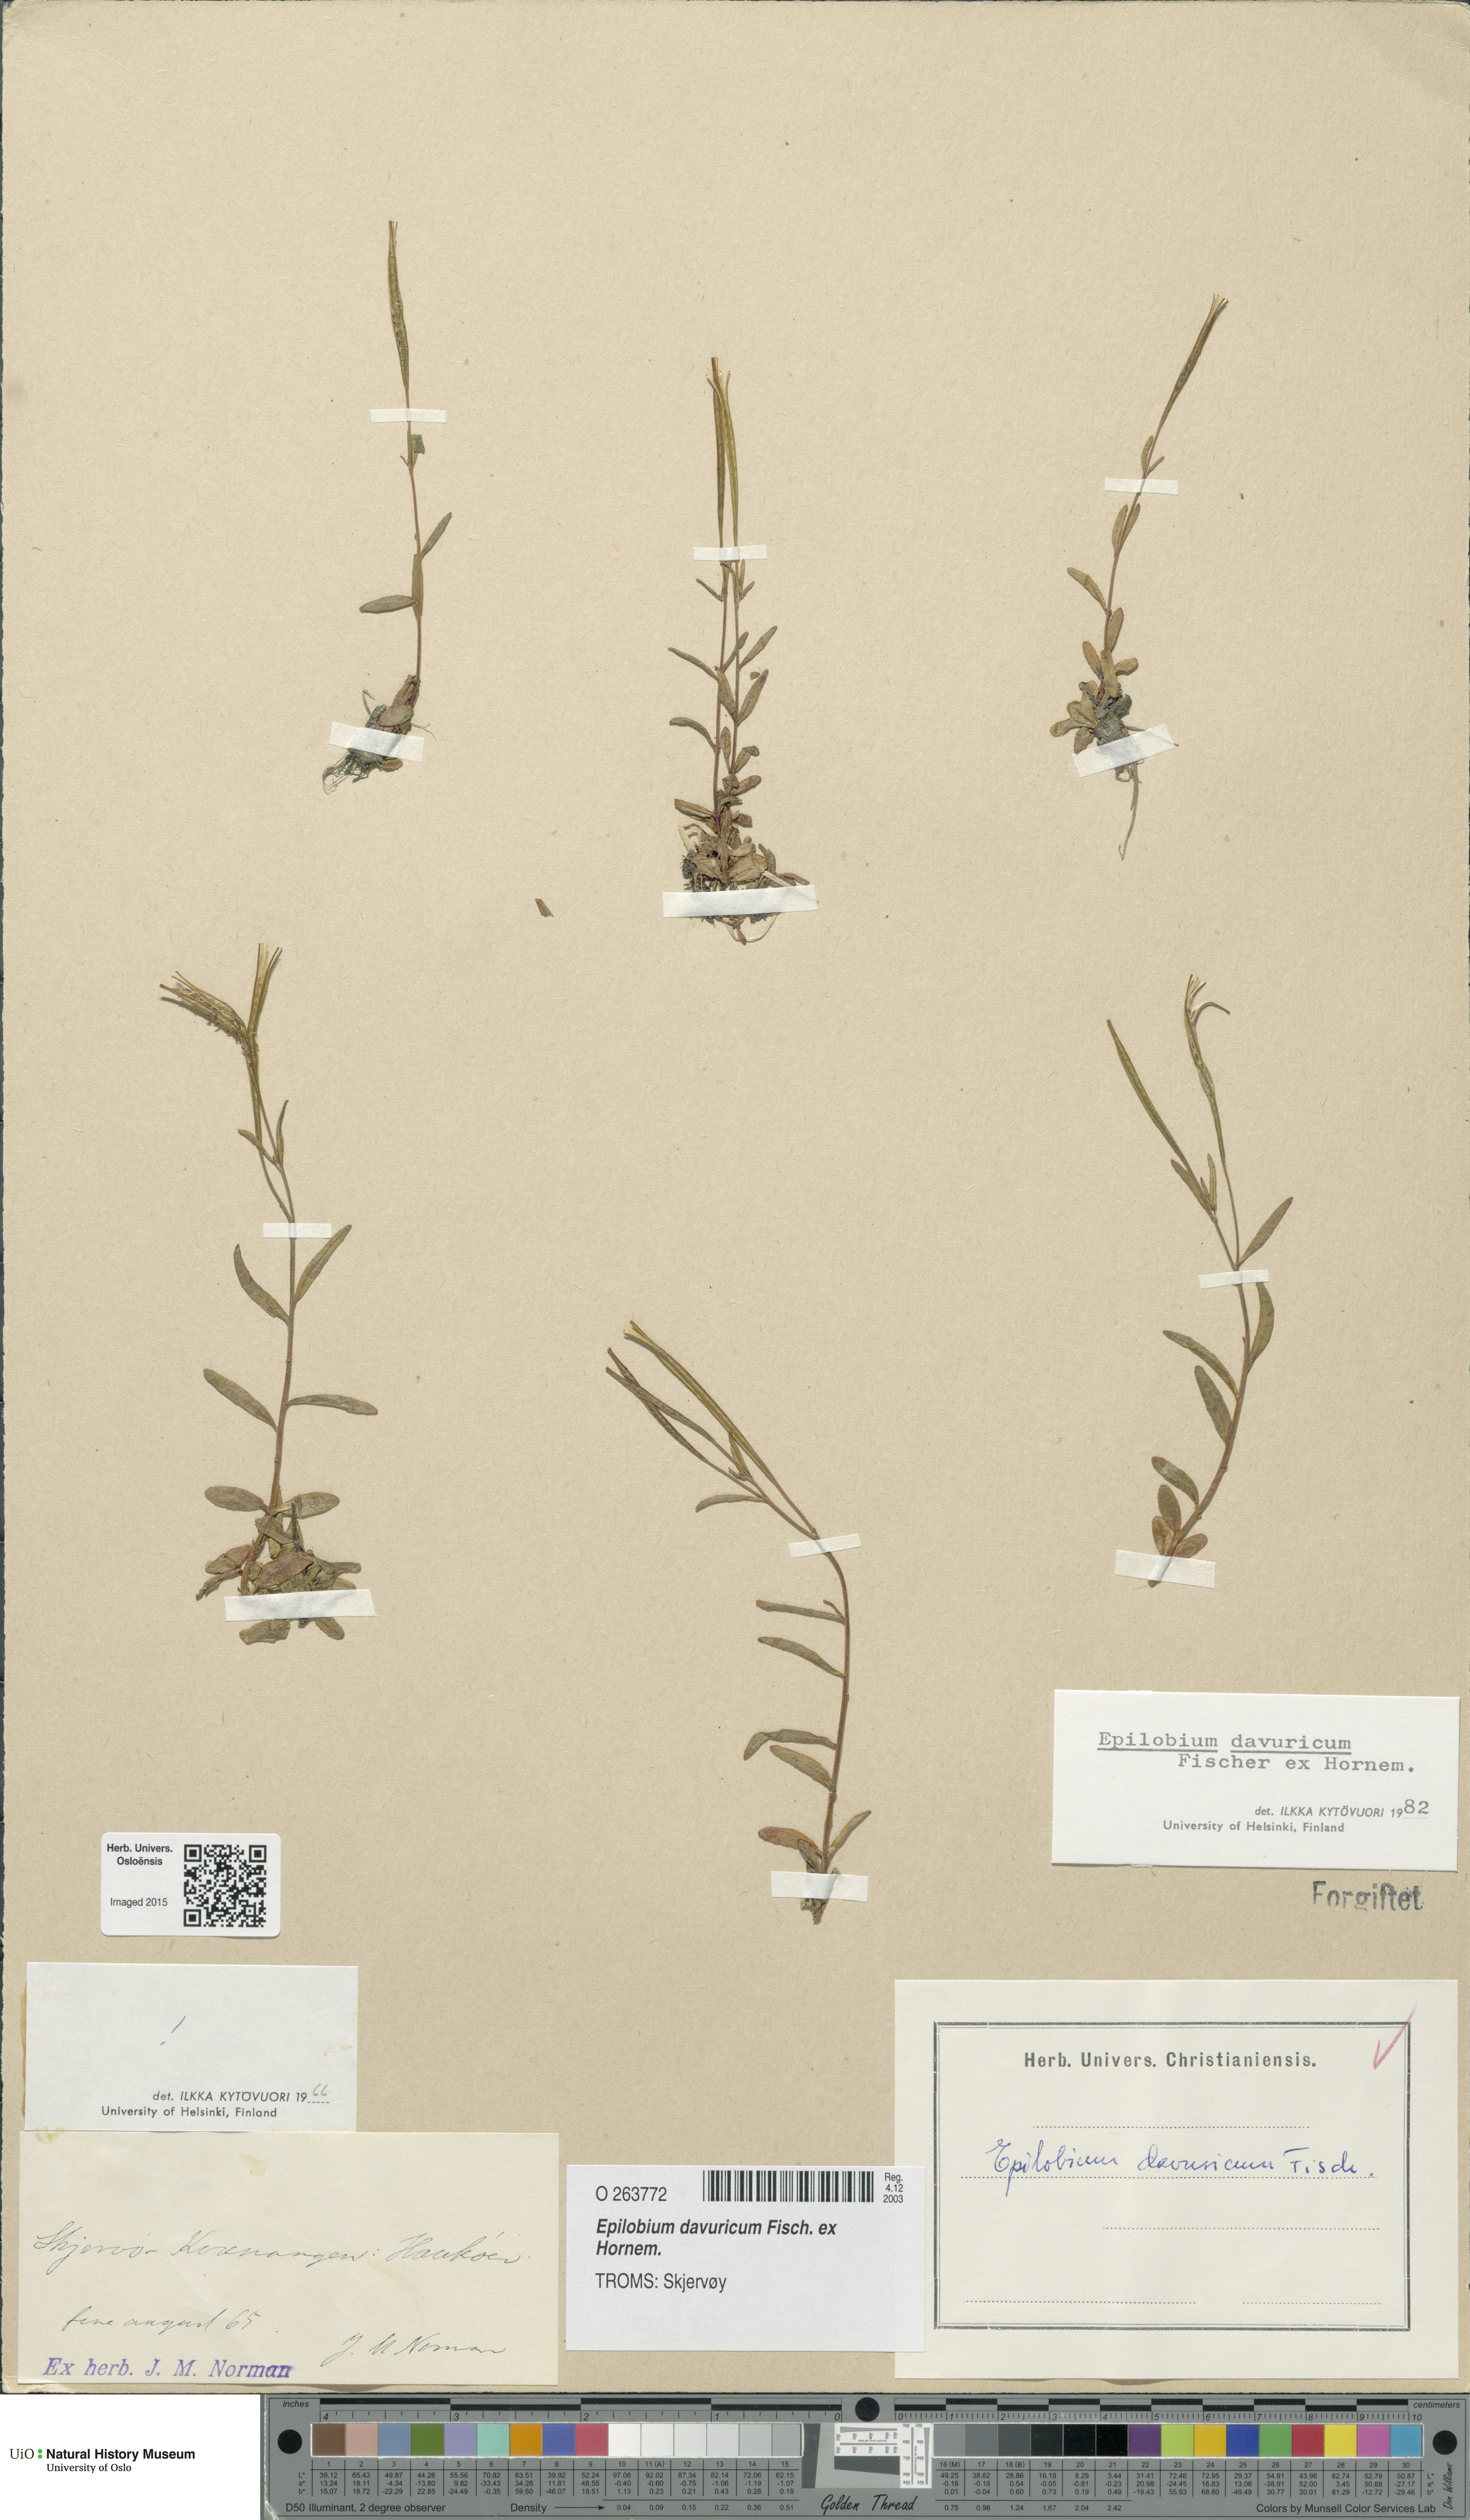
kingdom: Plantae
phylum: Tracheophyta
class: Magnoliopsida
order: Myrtales
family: Onagraceae
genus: Epilobium
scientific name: Epilobium davuricum
